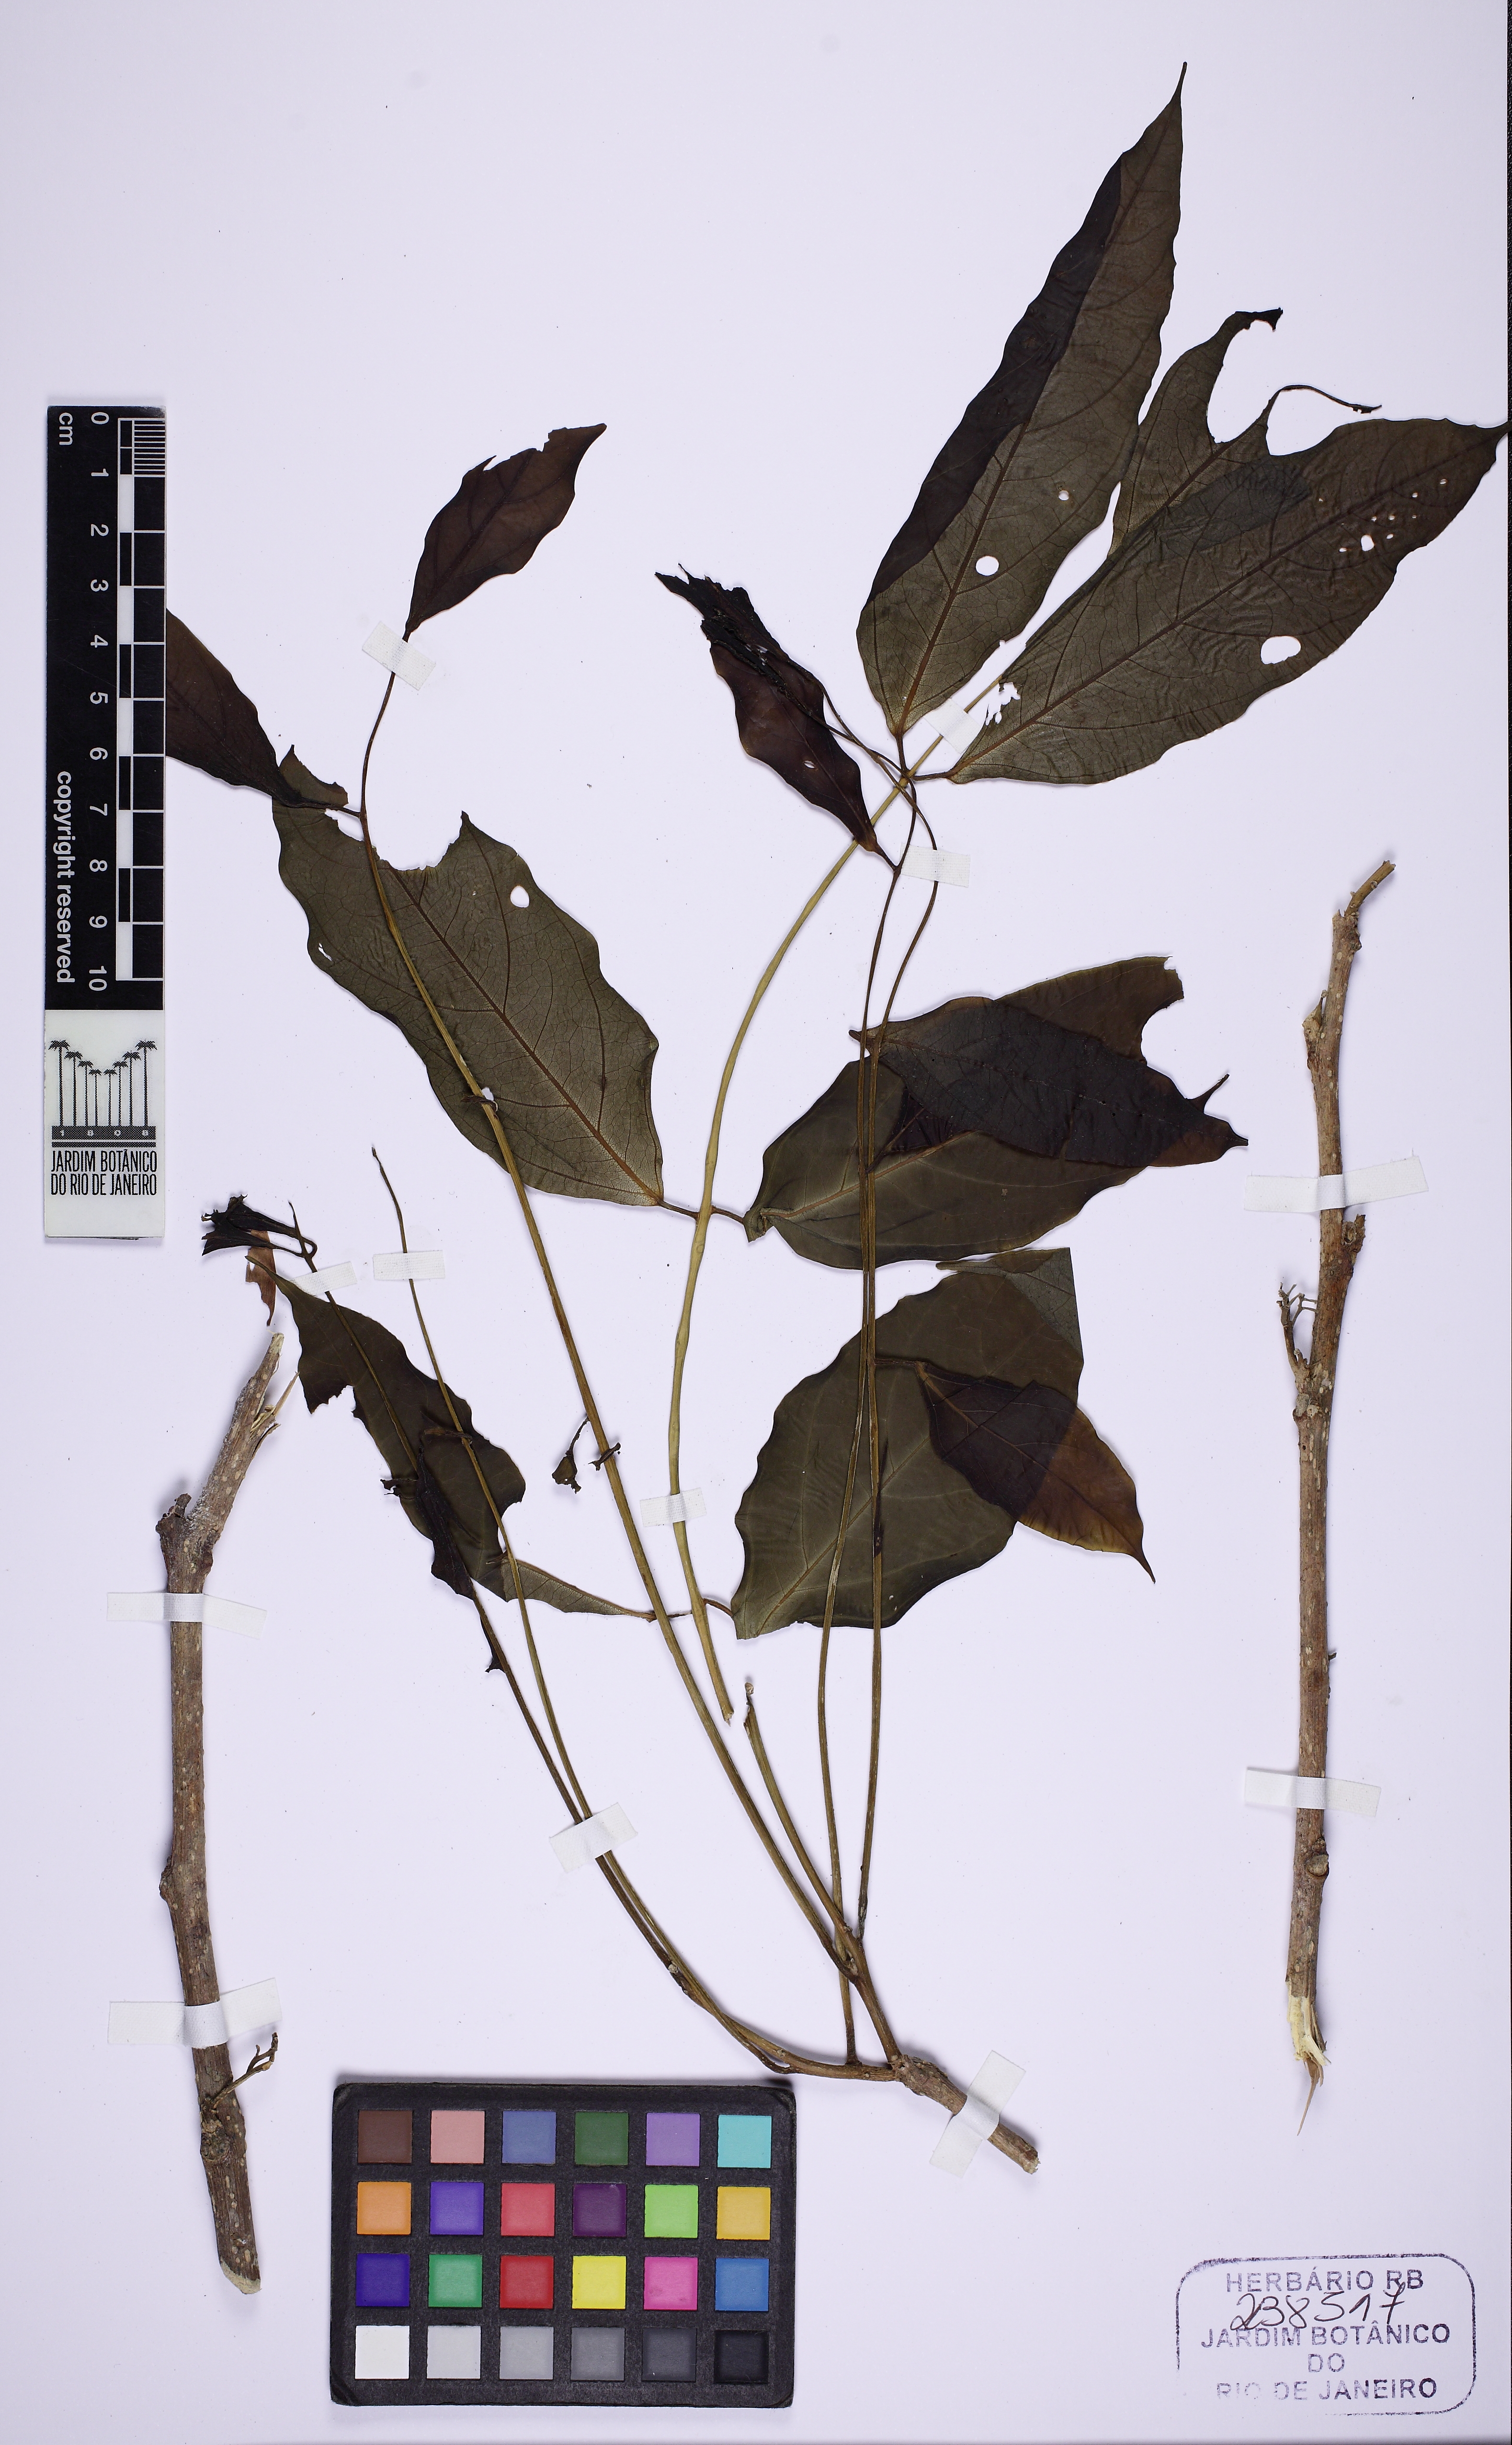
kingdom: Plantae
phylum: Tracheophyta
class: Magnoliopsida
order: Fabales
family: Fabaceae
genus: Dahlstedtia
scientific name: Dahlstedtia pinnata
